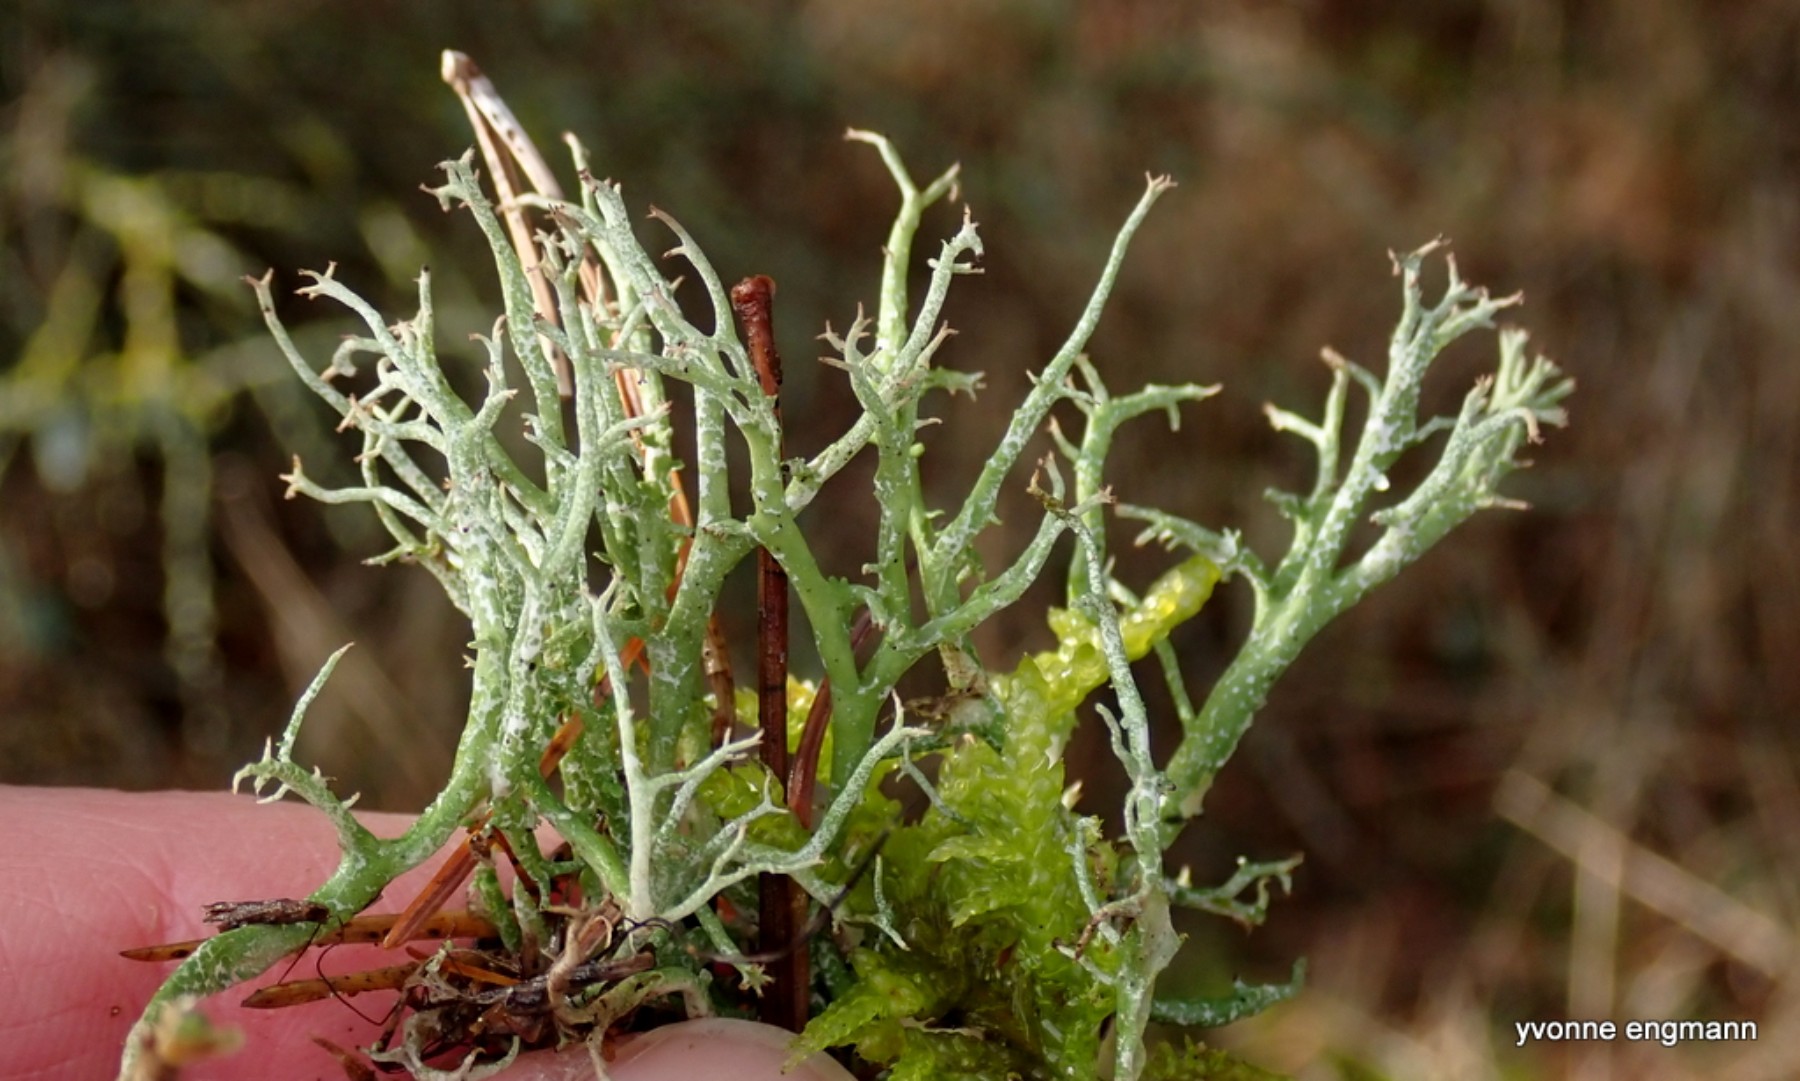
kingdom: Fungi
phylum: Ascomycota
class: Lecanoromycetes
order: Lecanorales
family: Cladoniaceae
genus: Cladonia
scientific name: Cladonia rangiformis
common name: spættet bægerlav
